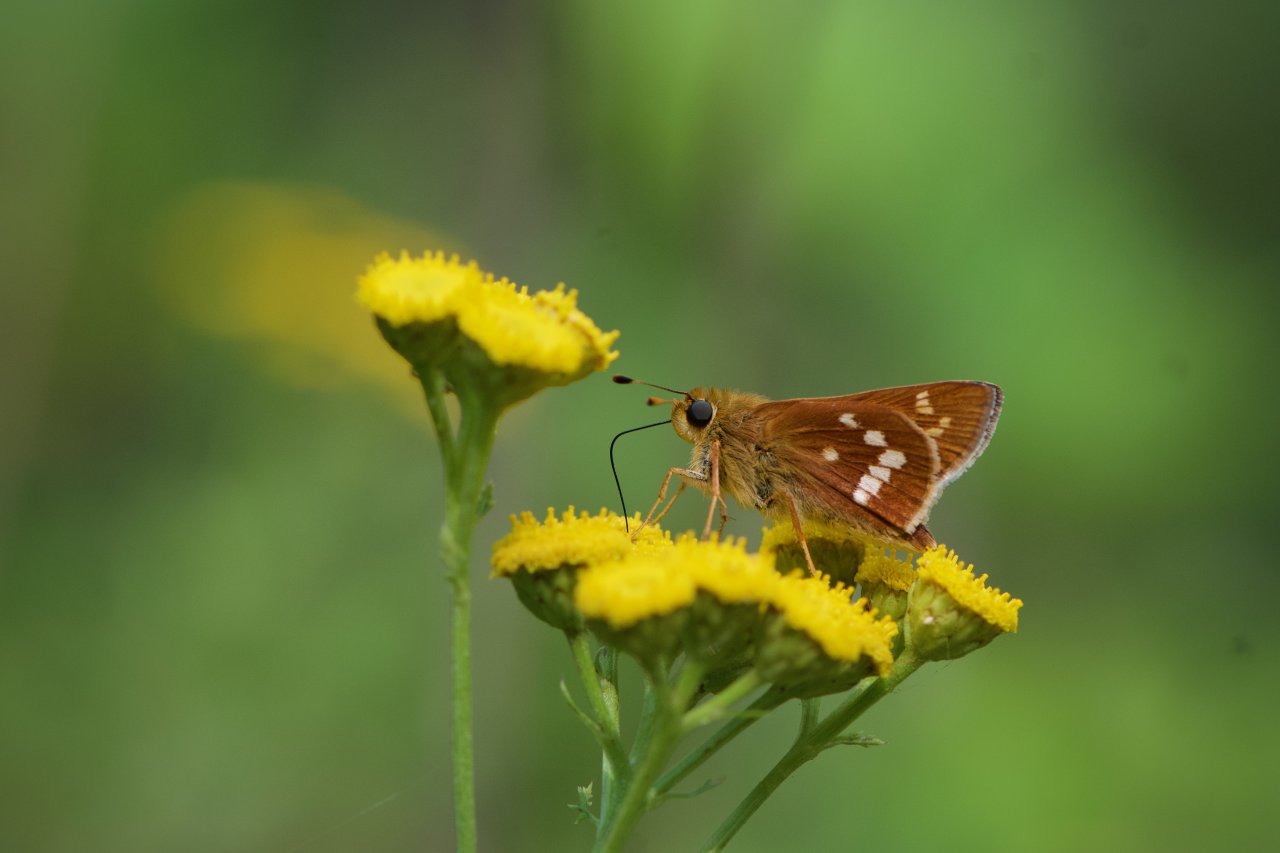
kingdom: Animalia
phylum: Arthropoda
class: Insecta
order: Lepidoptera
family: Hesperiidae
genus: Hesperia
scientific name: Hesperia leonardus
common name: Leonard's Skipper
